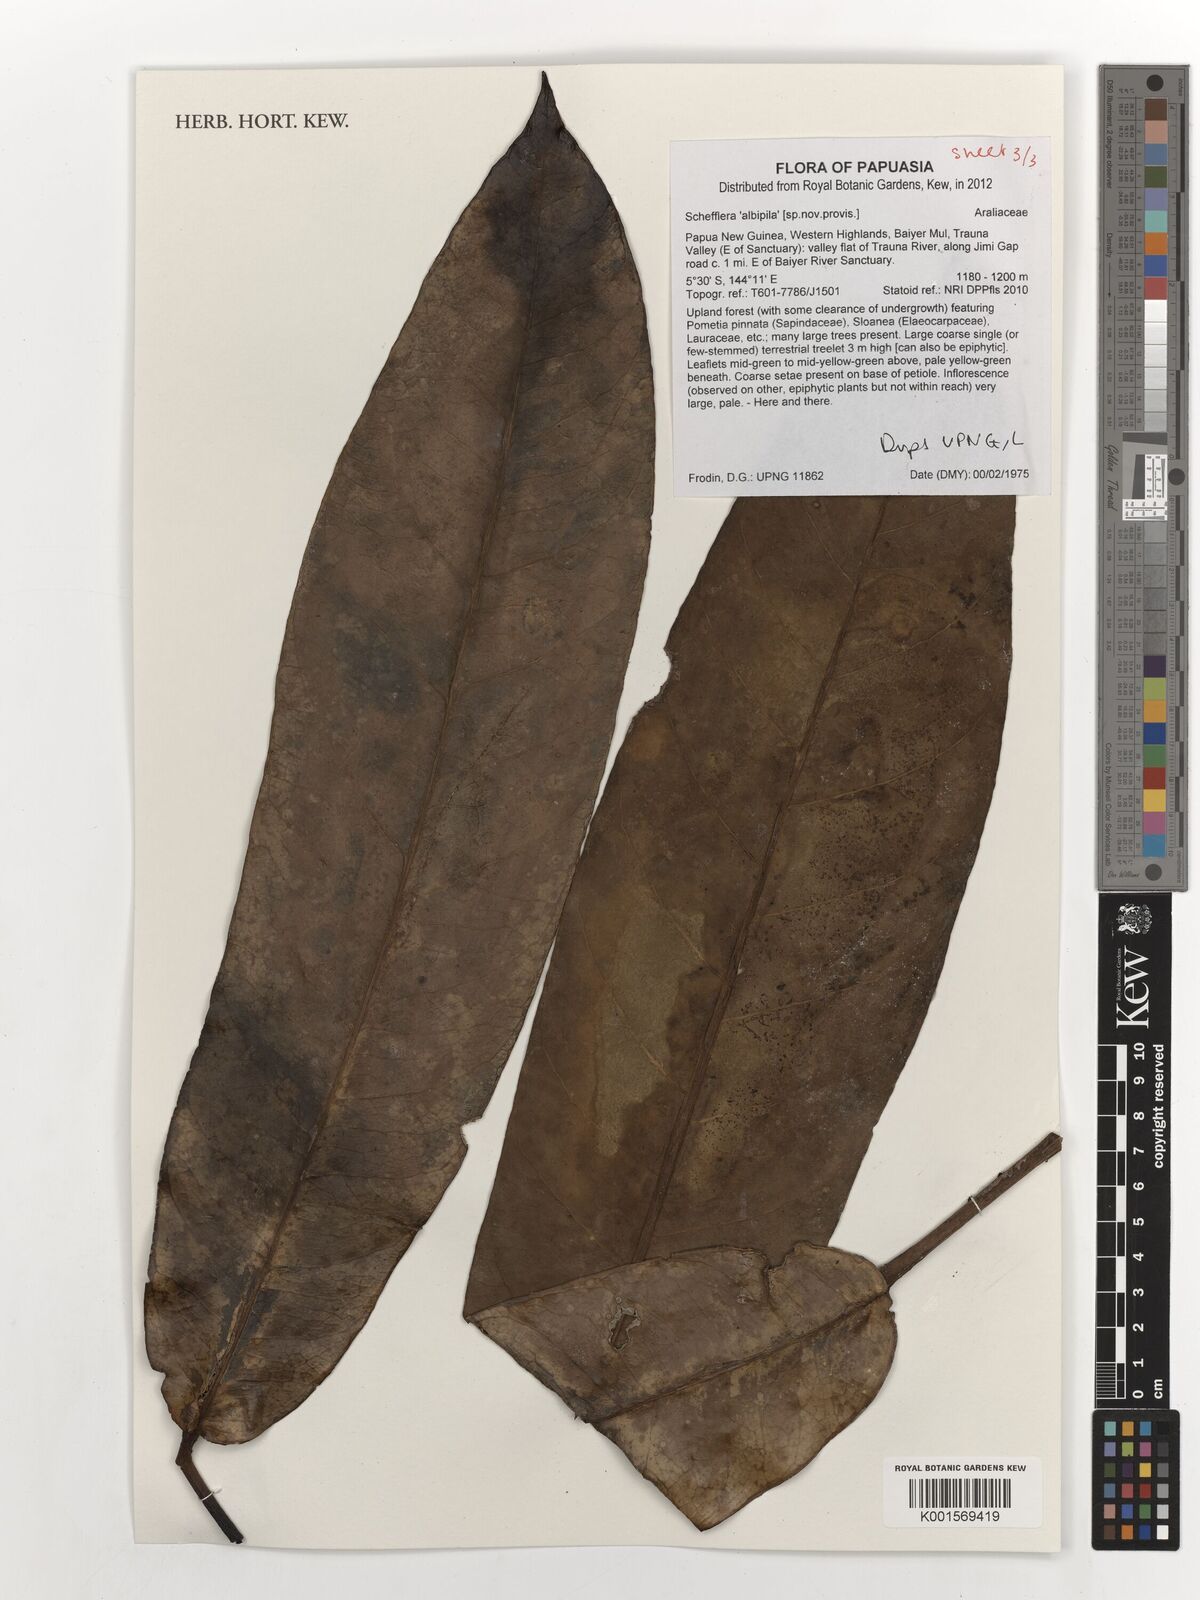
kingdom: Plantae
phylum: Tracheophyta
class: Magnoliopsida
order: Apiales
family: Araliaceae
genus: Schefflera
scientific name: Schefflera
